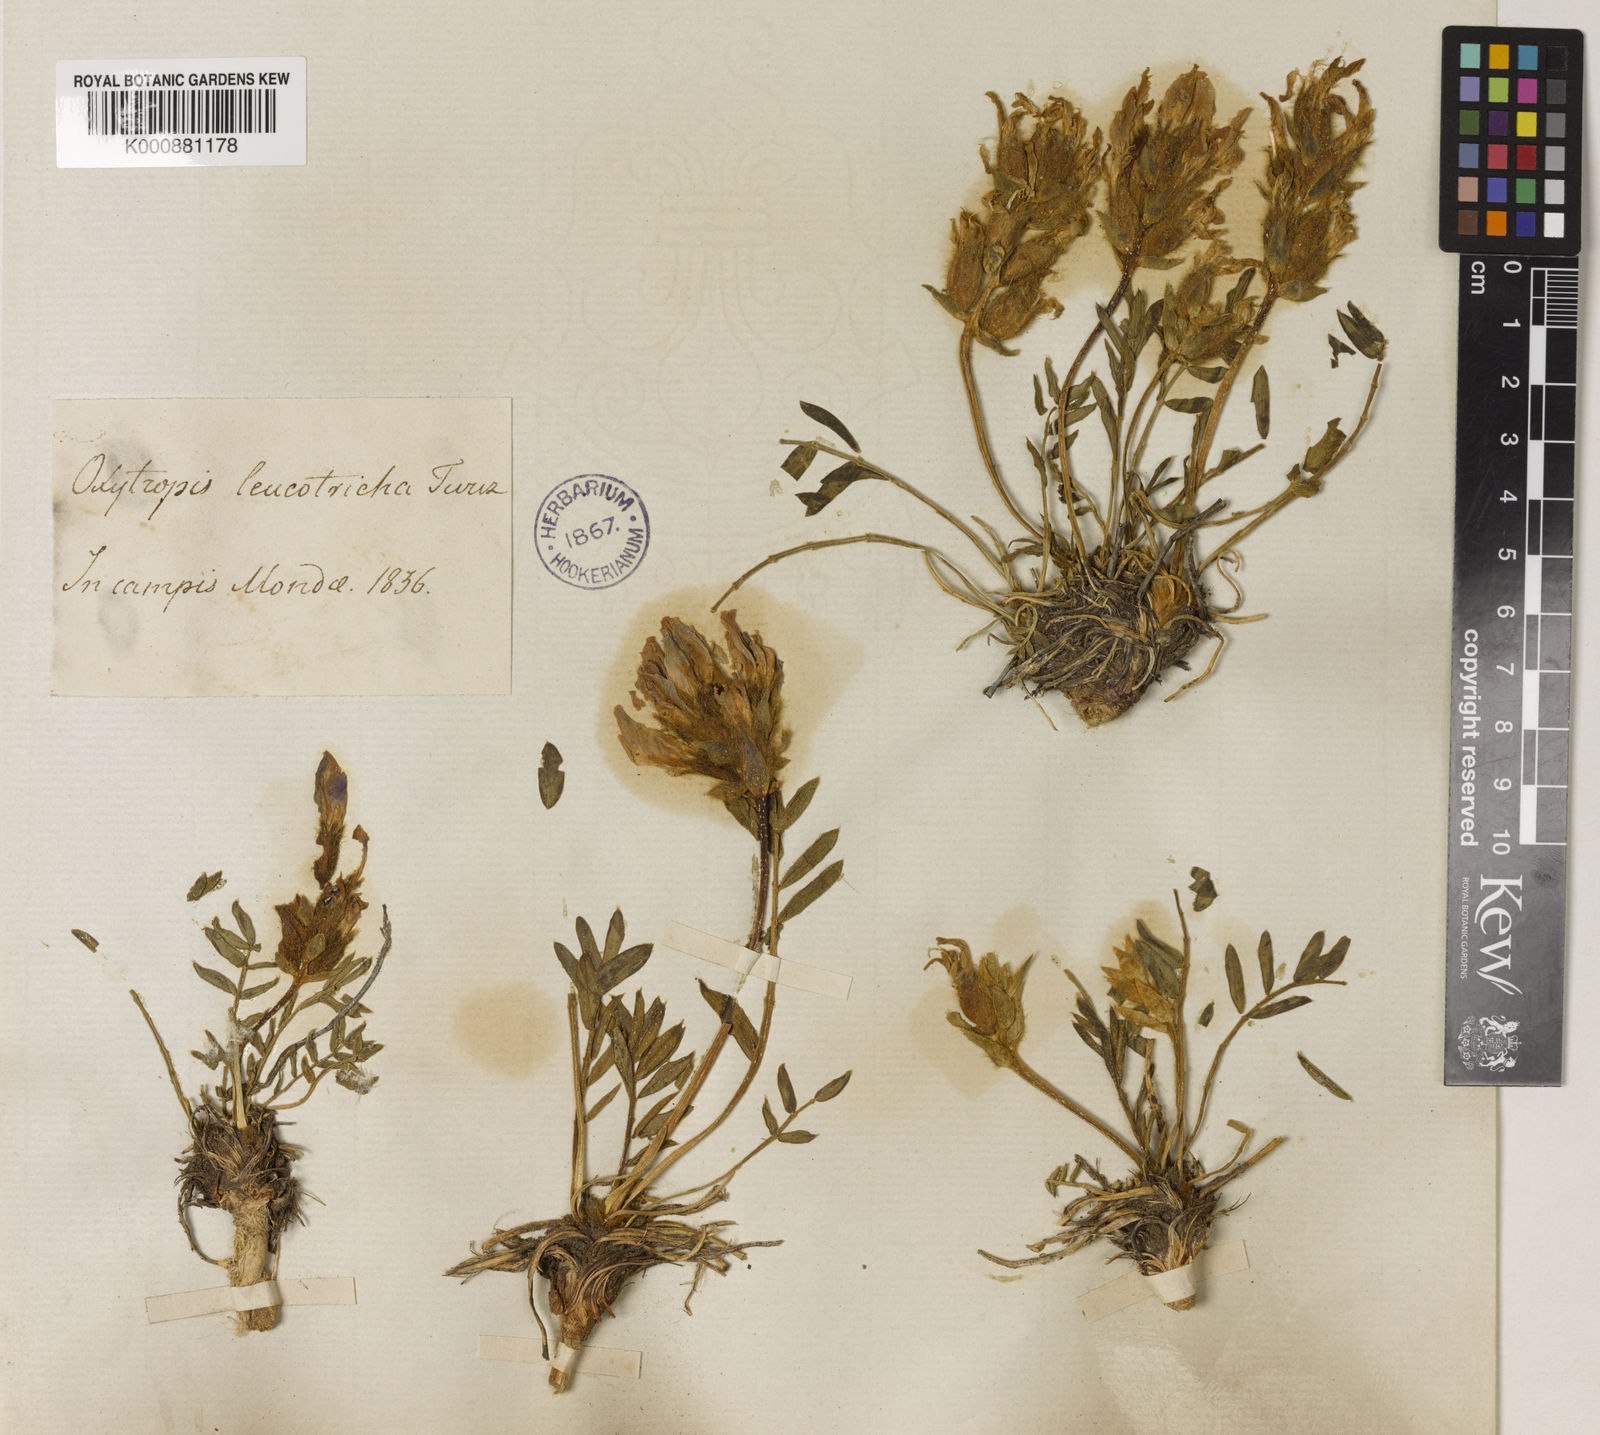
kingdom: Plantae
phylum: Tracheophyta
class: Magnoliopsida
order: Fabales
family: Fabaceae
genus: Oxytropis
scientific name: Oxytropis leucotricha
